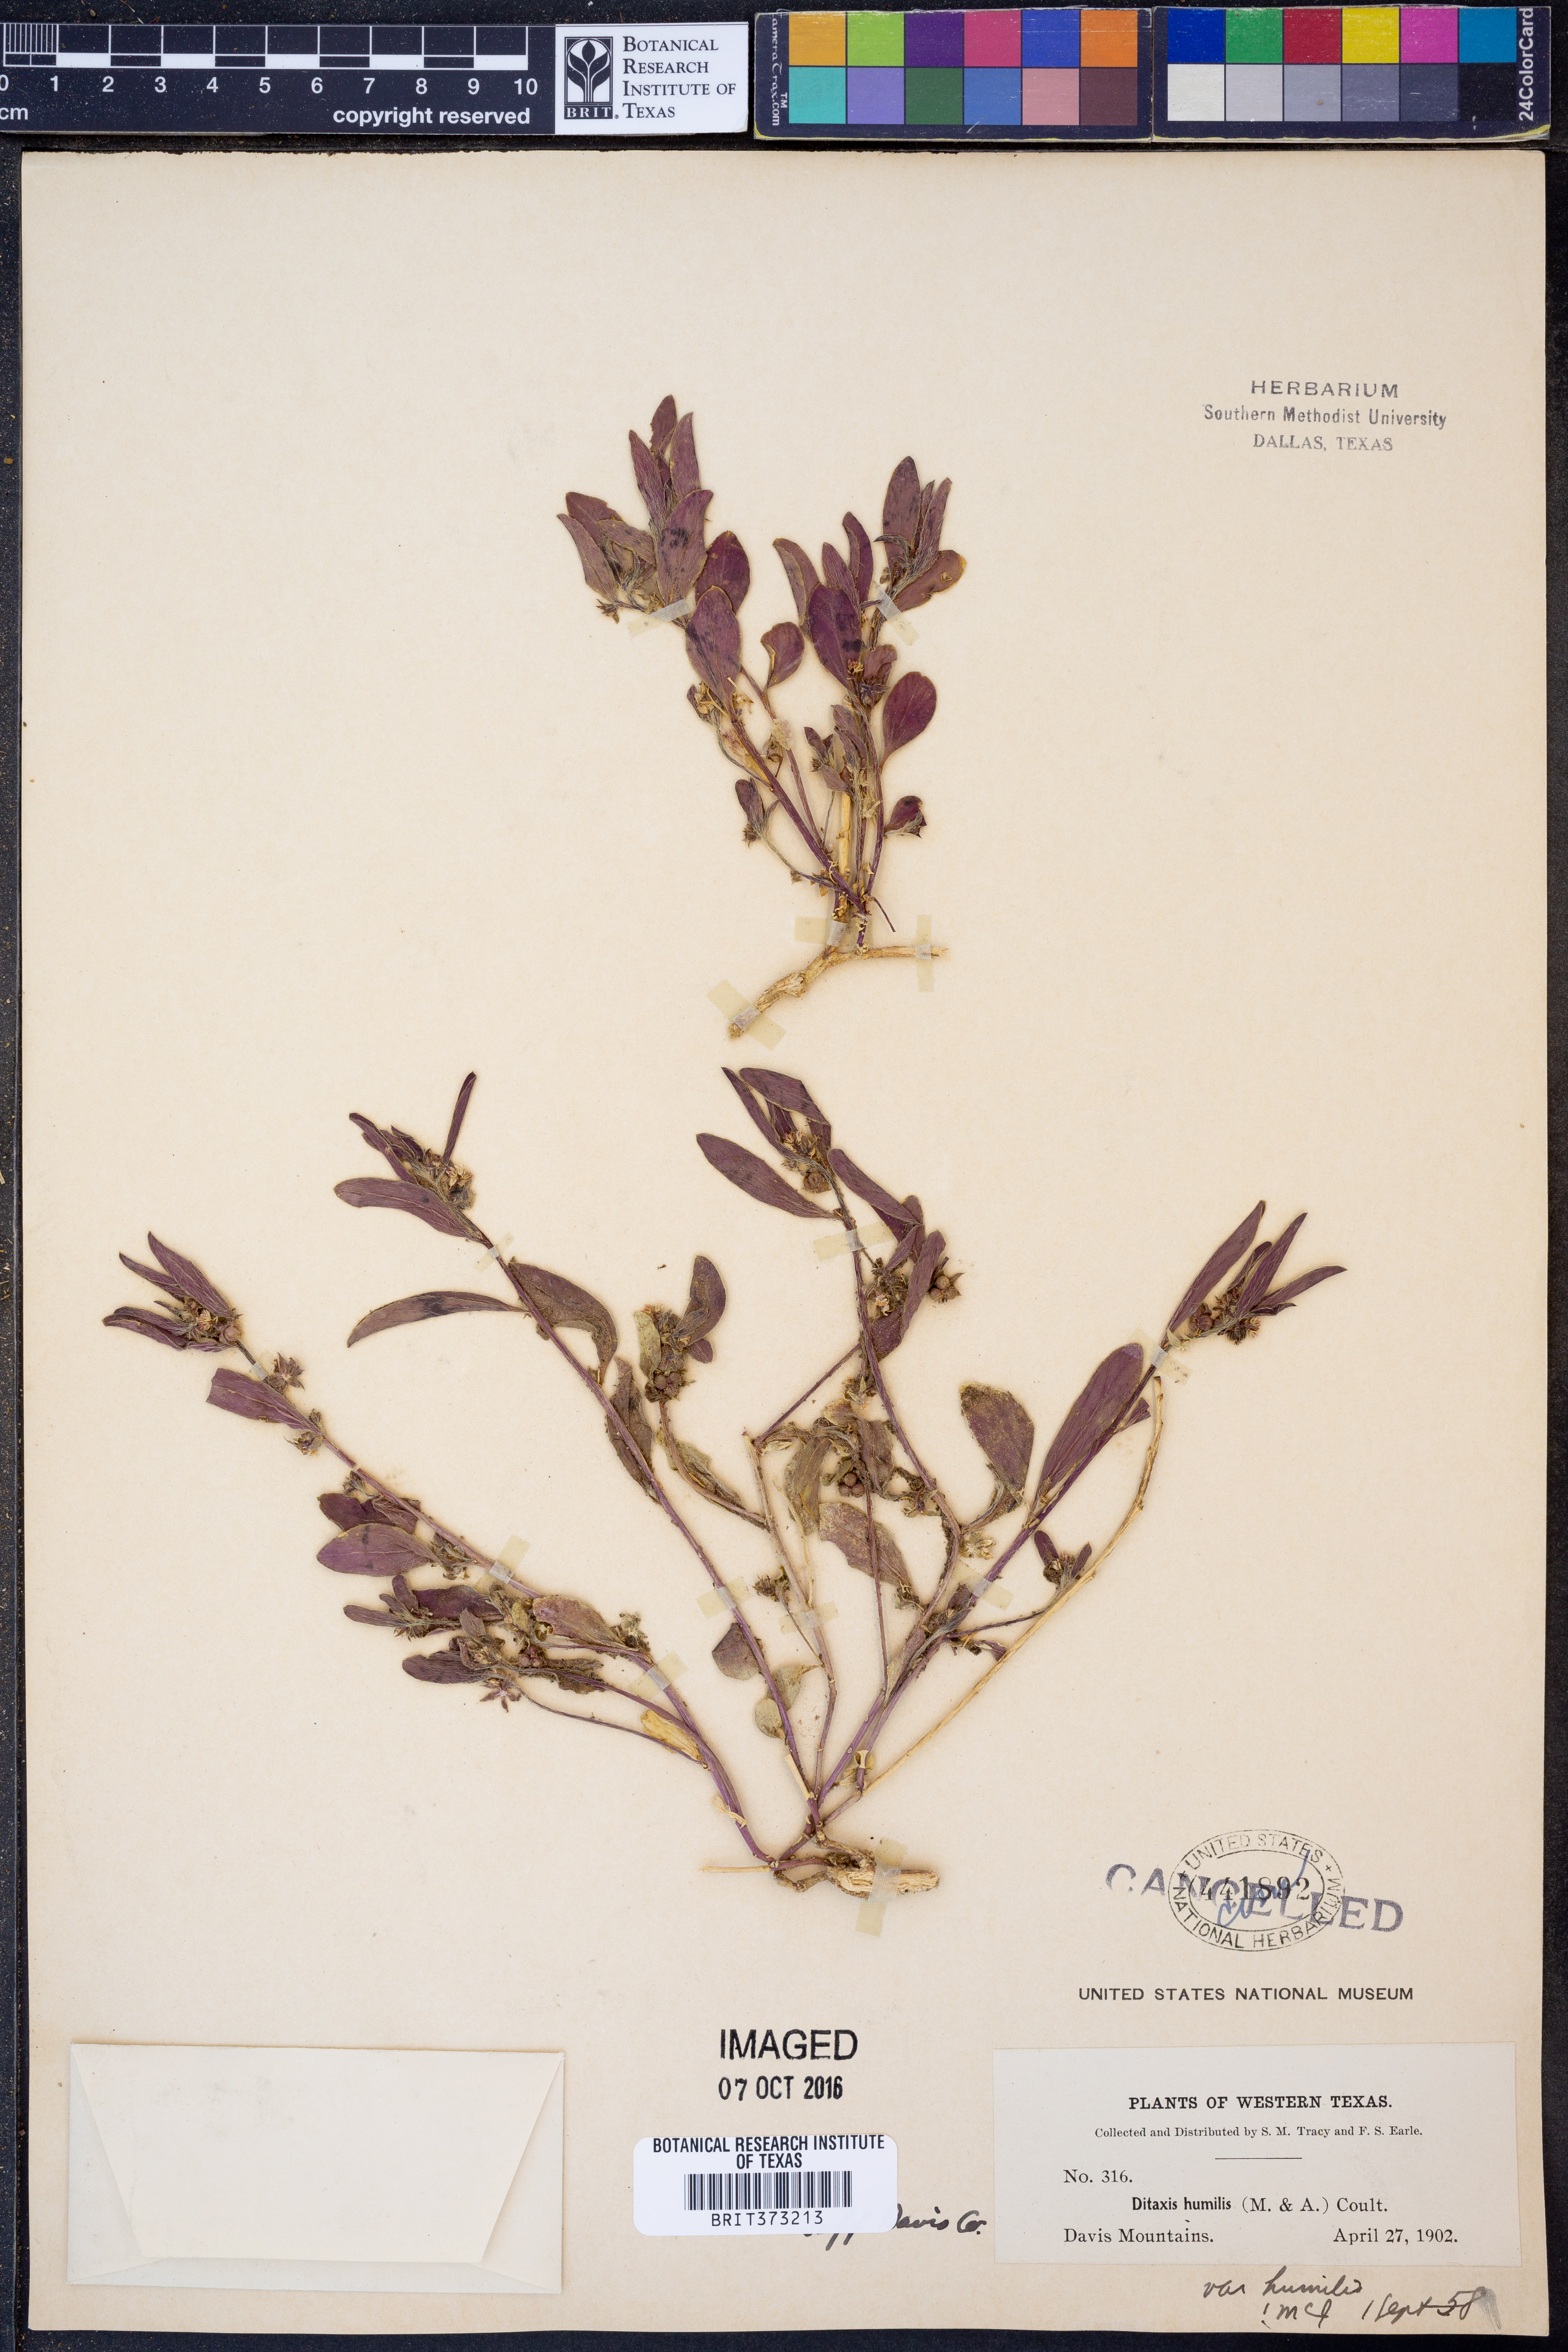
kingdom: Plantae
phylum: Tracheophyta
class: Magnoliopsida
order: Malpighiales
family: Euphorbiaceae
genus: Ditaxis
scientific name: Ditaxis humilis
